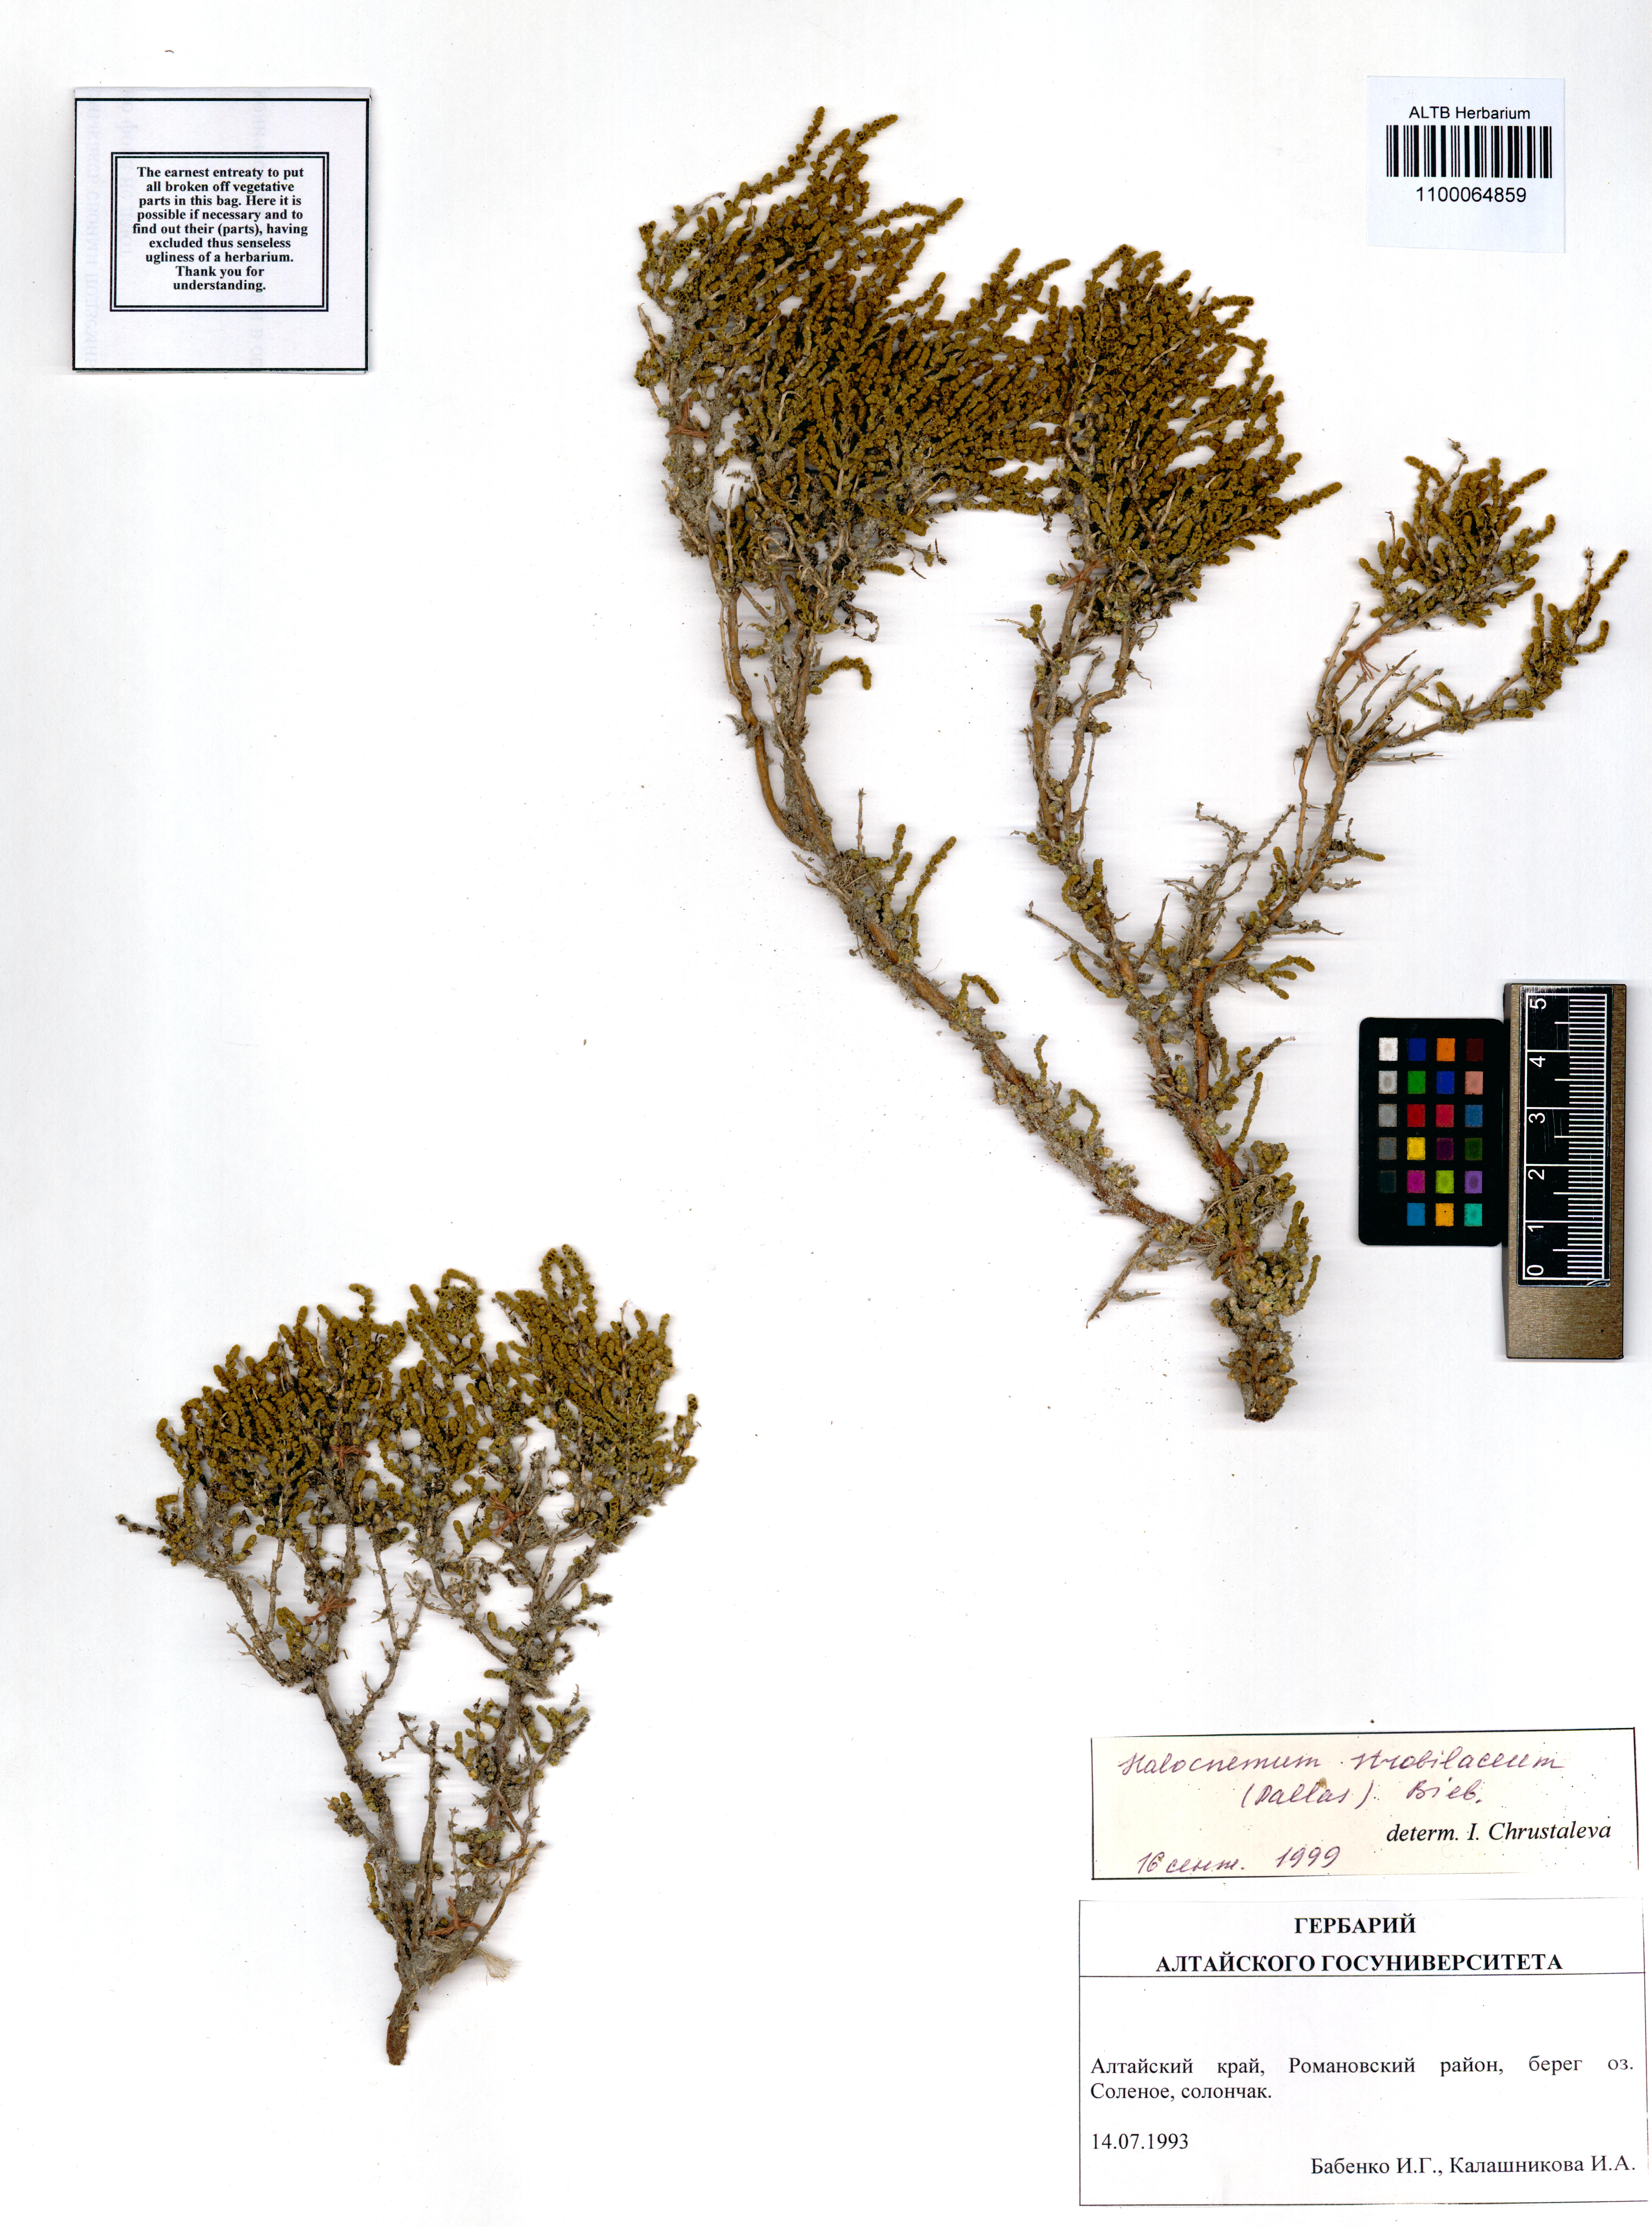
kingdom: Plantae
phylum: Tracheophyta
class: Magnoliopsida
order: Caryophyllales
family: Amaranthaceae
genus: Halocnemum
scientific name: Halocnemum strobilaceum
